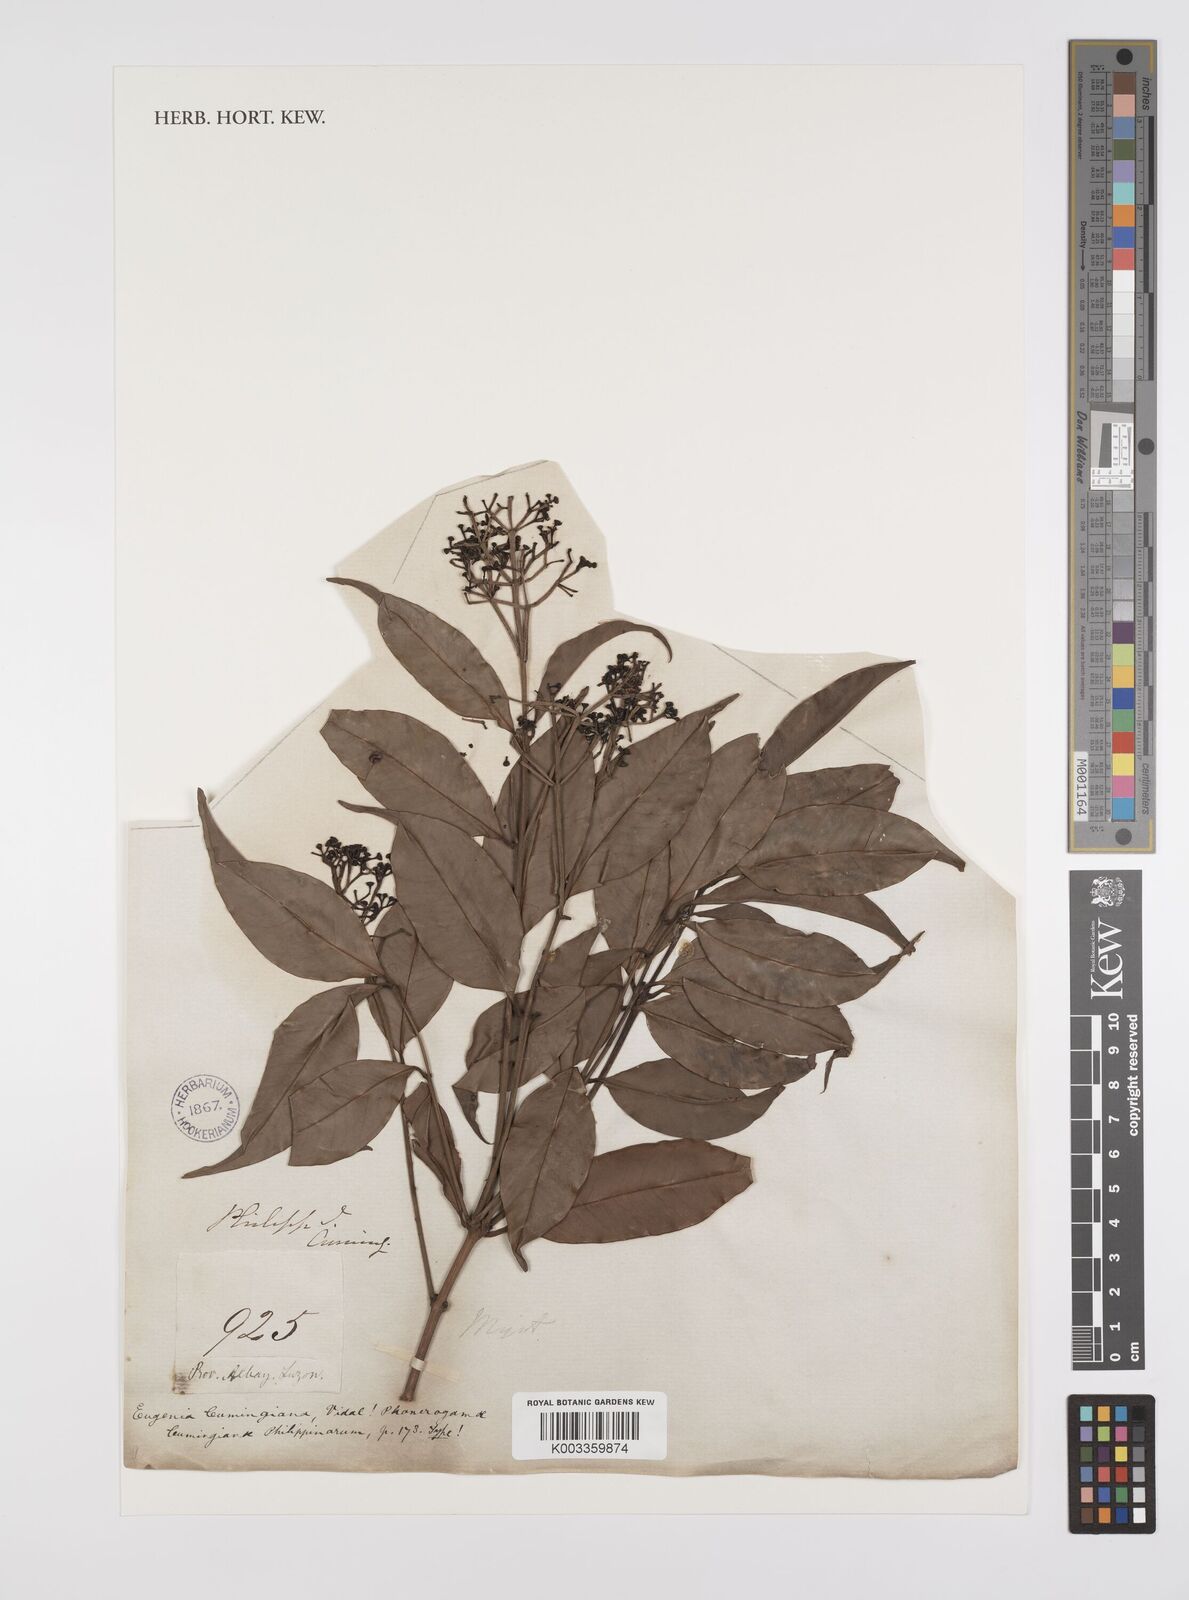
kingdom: Plantae
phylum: Tracheophyta
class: Magnoliopsida
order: Myrtales
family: Myrtaceae
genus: Syzygium
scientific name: Syzygium acuminatissimum
